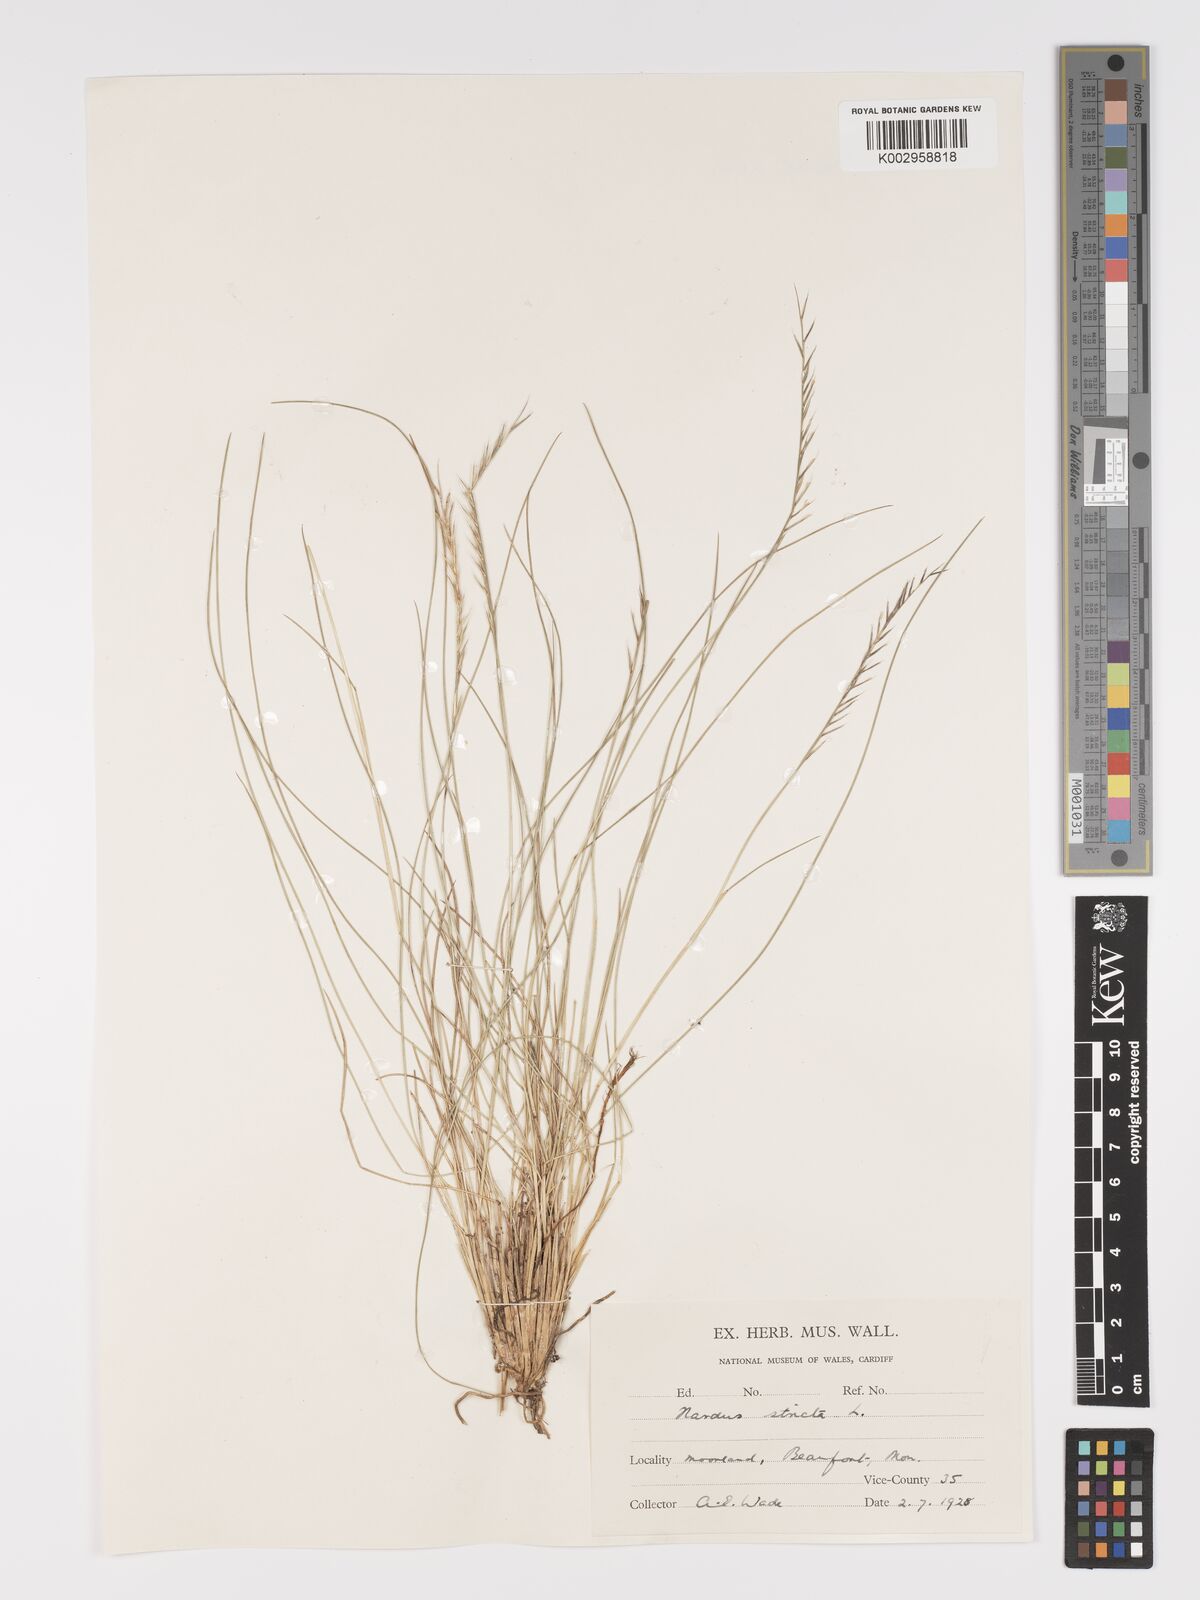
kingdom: Plantae
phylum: Tracheophyta
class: Liliopsida
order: Poales
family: Poaceae
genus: Nardus
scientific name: Nardus stricta
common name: Mat-grass
